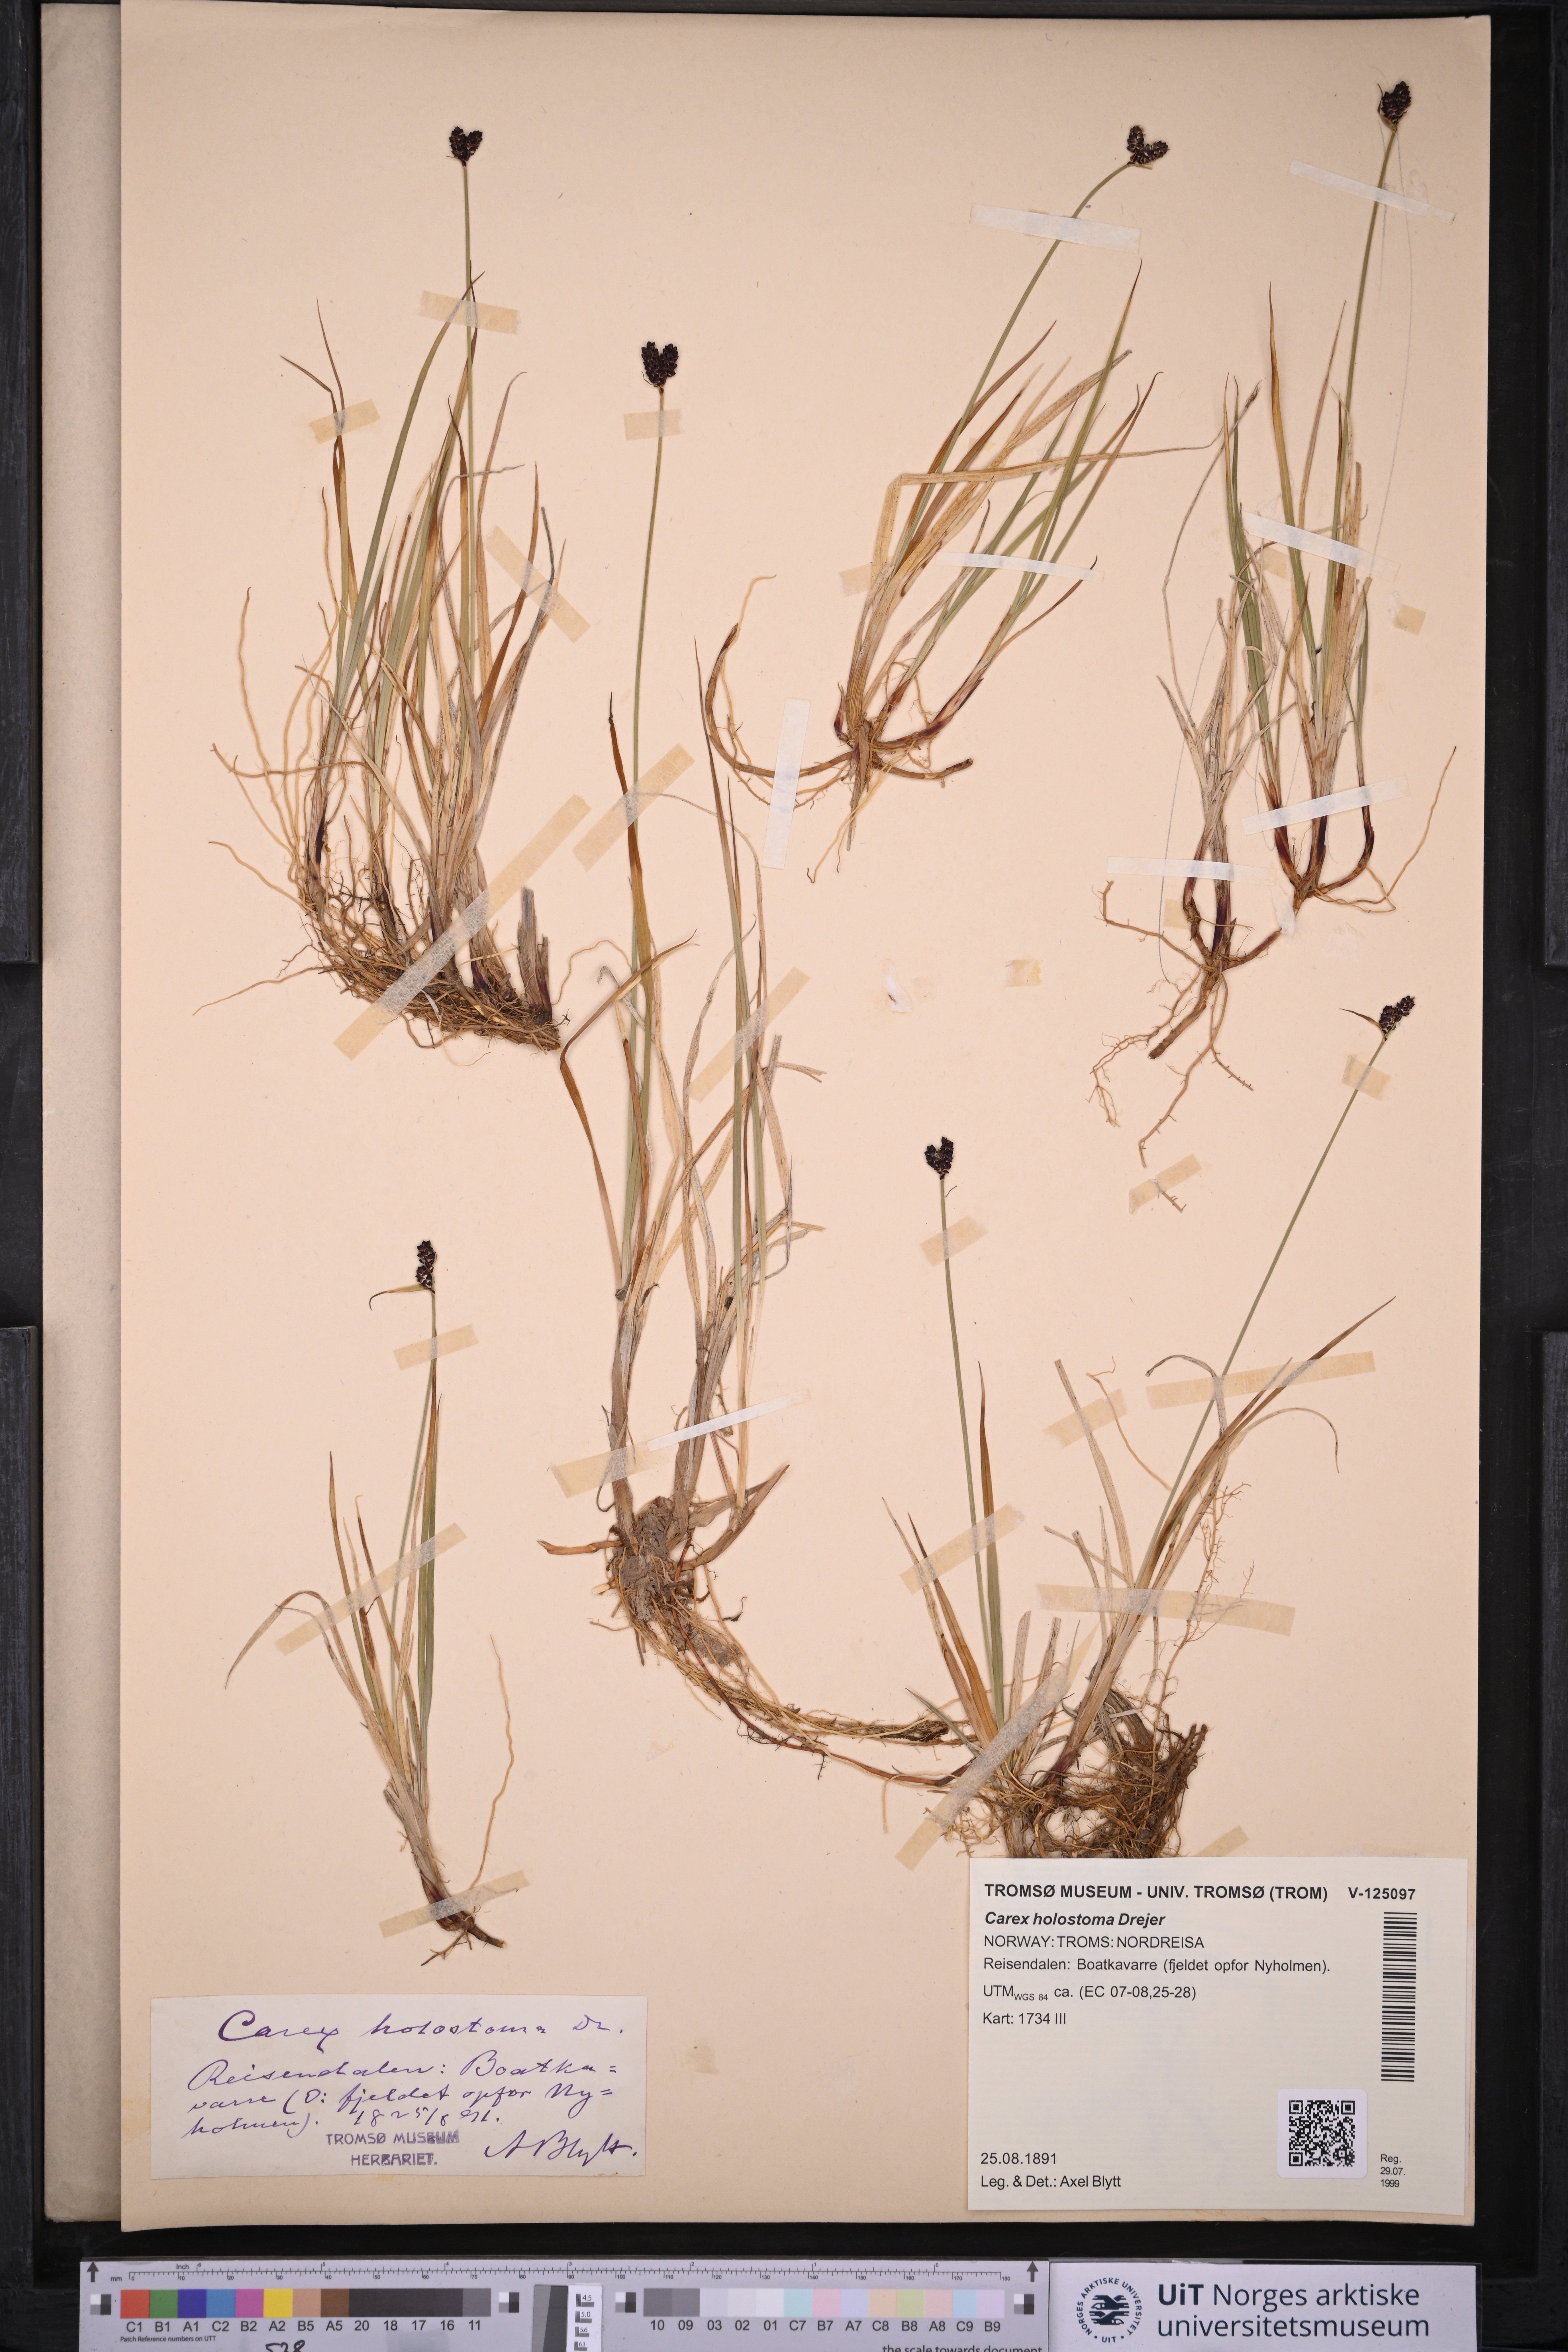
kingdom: Plantae
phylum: Tracheophyta
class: Liliopsida
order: Poales
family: Cyperaceae
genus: Carex
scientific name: Carex holostoma
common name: Arctic marsh sedge
